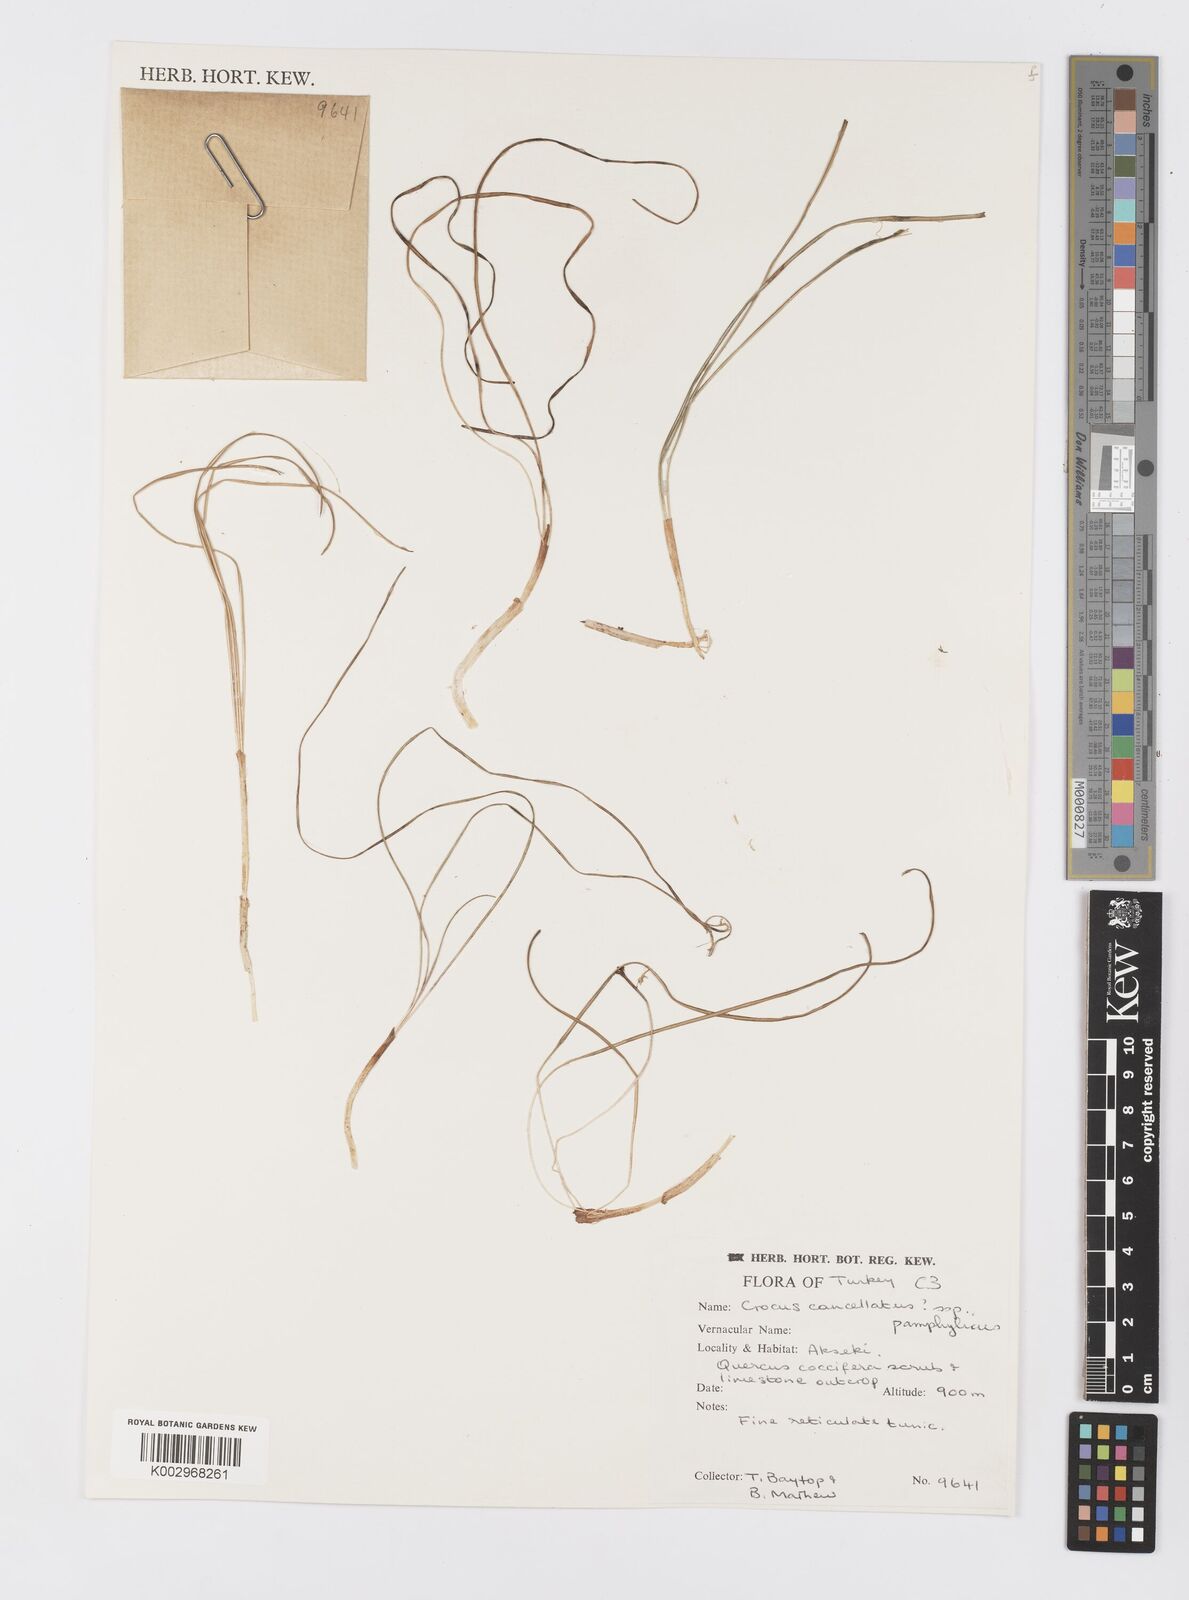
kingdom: Plantae
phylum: Tracheophyta
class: Liliopsida
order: Asparagales
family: Iridaceae
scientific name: Iridaceae
